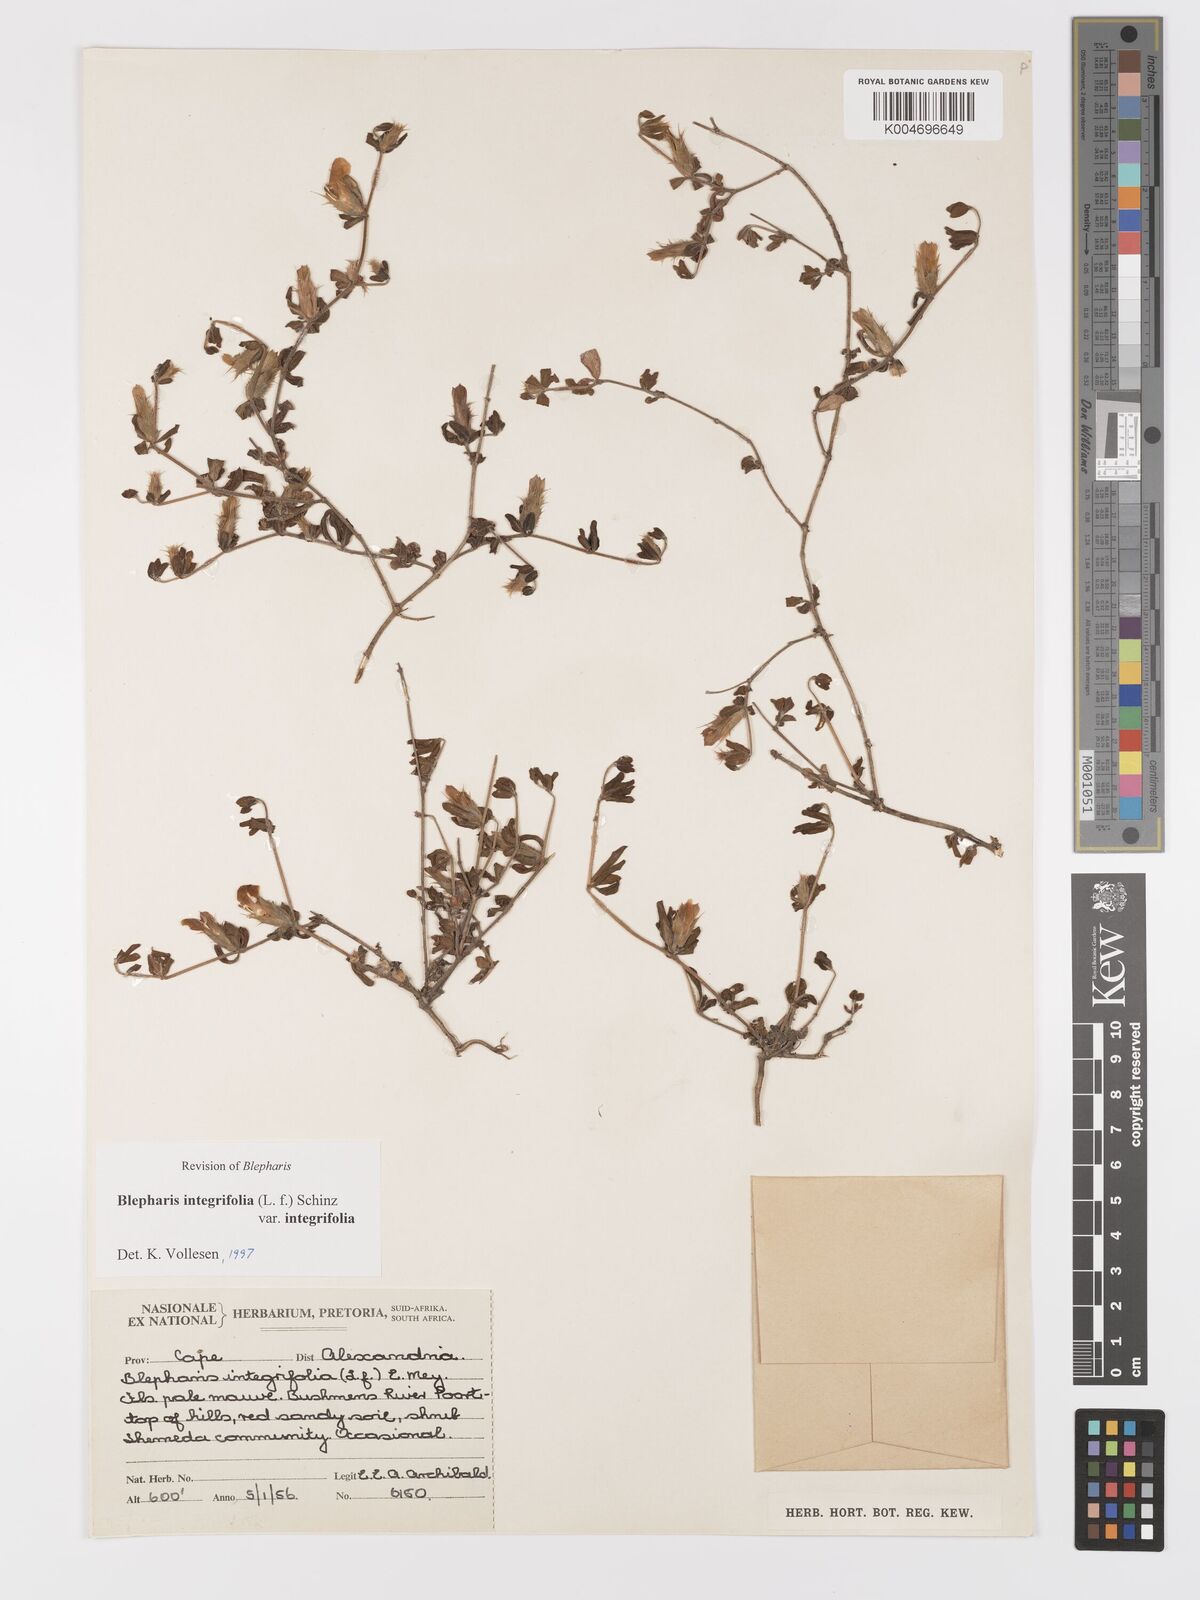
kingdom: Plantae
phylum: Tracheophyta
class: Magnoliopsida
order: Lamiales
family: Acanthaceae
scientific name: Acanthaceae
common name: Acanthaceae
